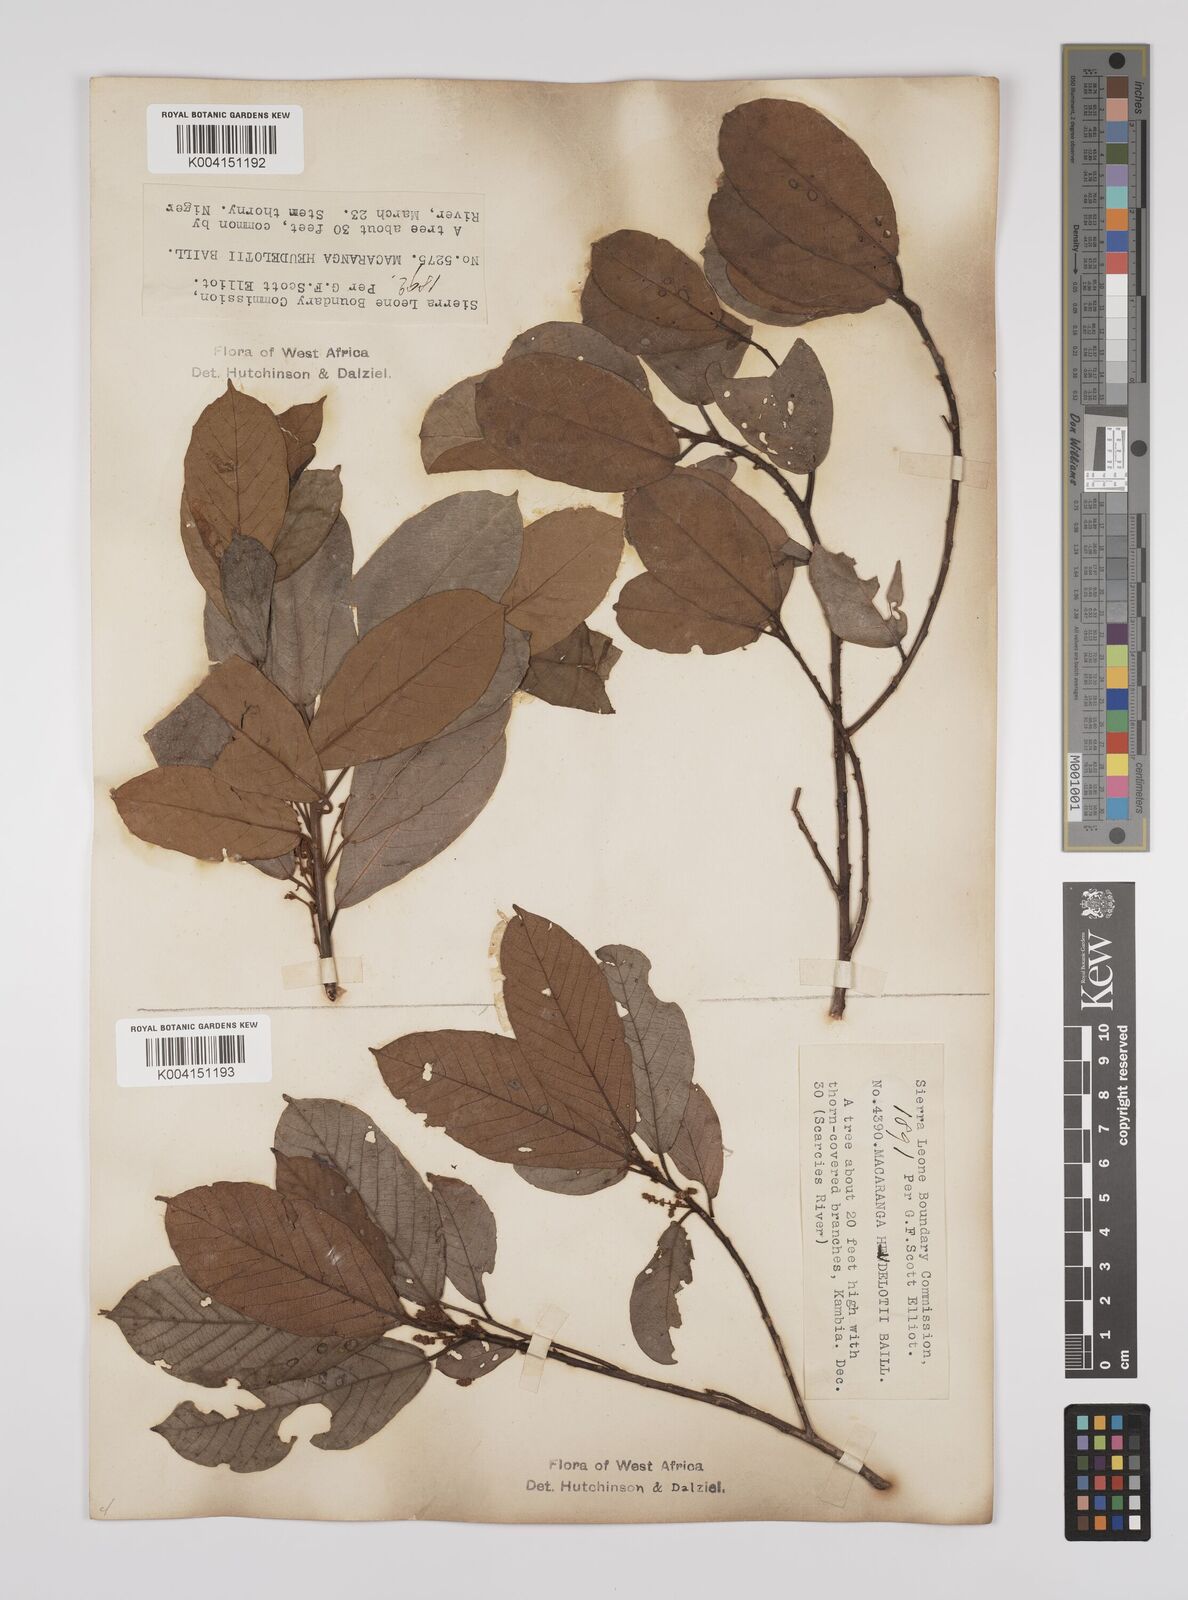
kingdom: Plantae
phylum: Tracheophyta
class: Magnoliopsida
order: Malpighiales
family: Euphorbiaceae
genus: Macaranga
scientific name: Macaranga heudelotii
